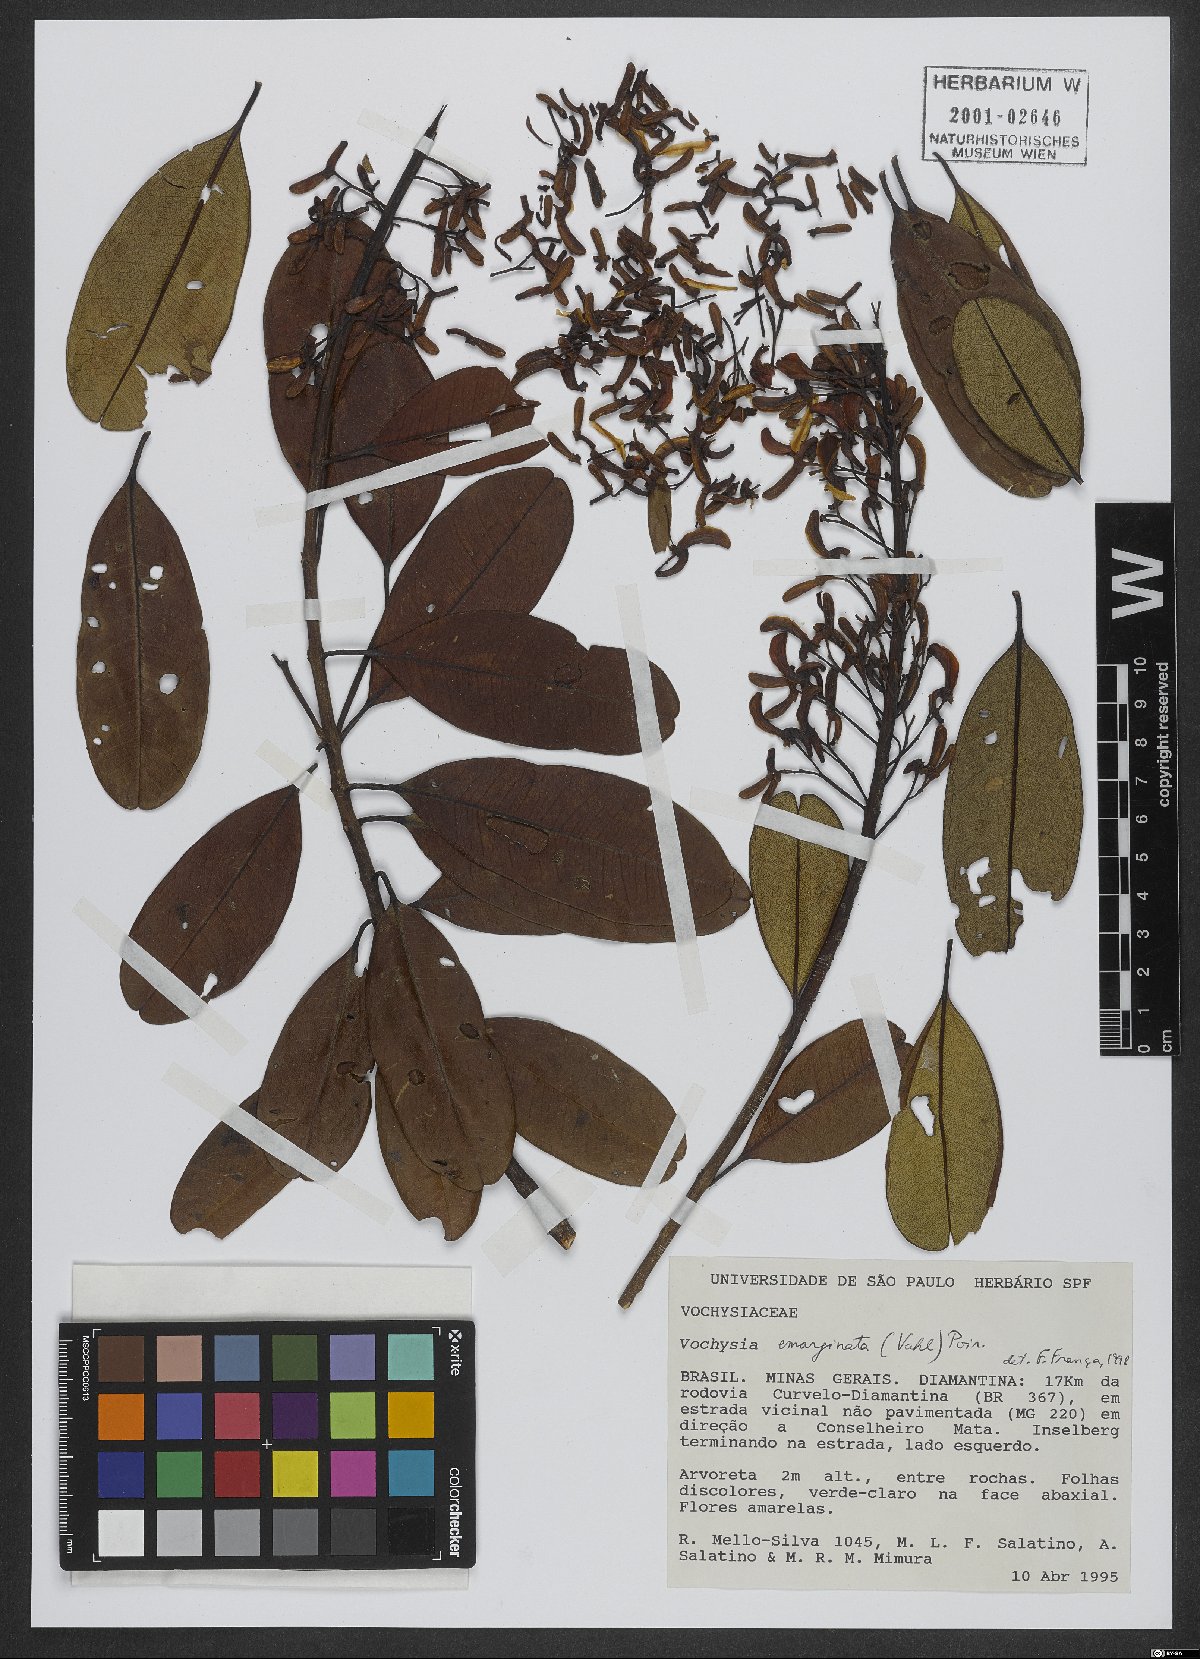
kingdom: Plantae
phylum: Tracheophyta
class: Magnoliopsida
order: Myrtales
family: Vochysiaceae
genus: Vochysia
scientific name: Vochysia emarginata
